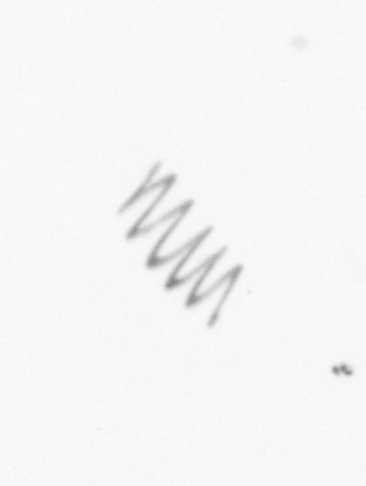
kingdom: Chromista
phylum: Ochrophyta
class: Bacillariophyceae
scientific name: Bacillariophyceae
